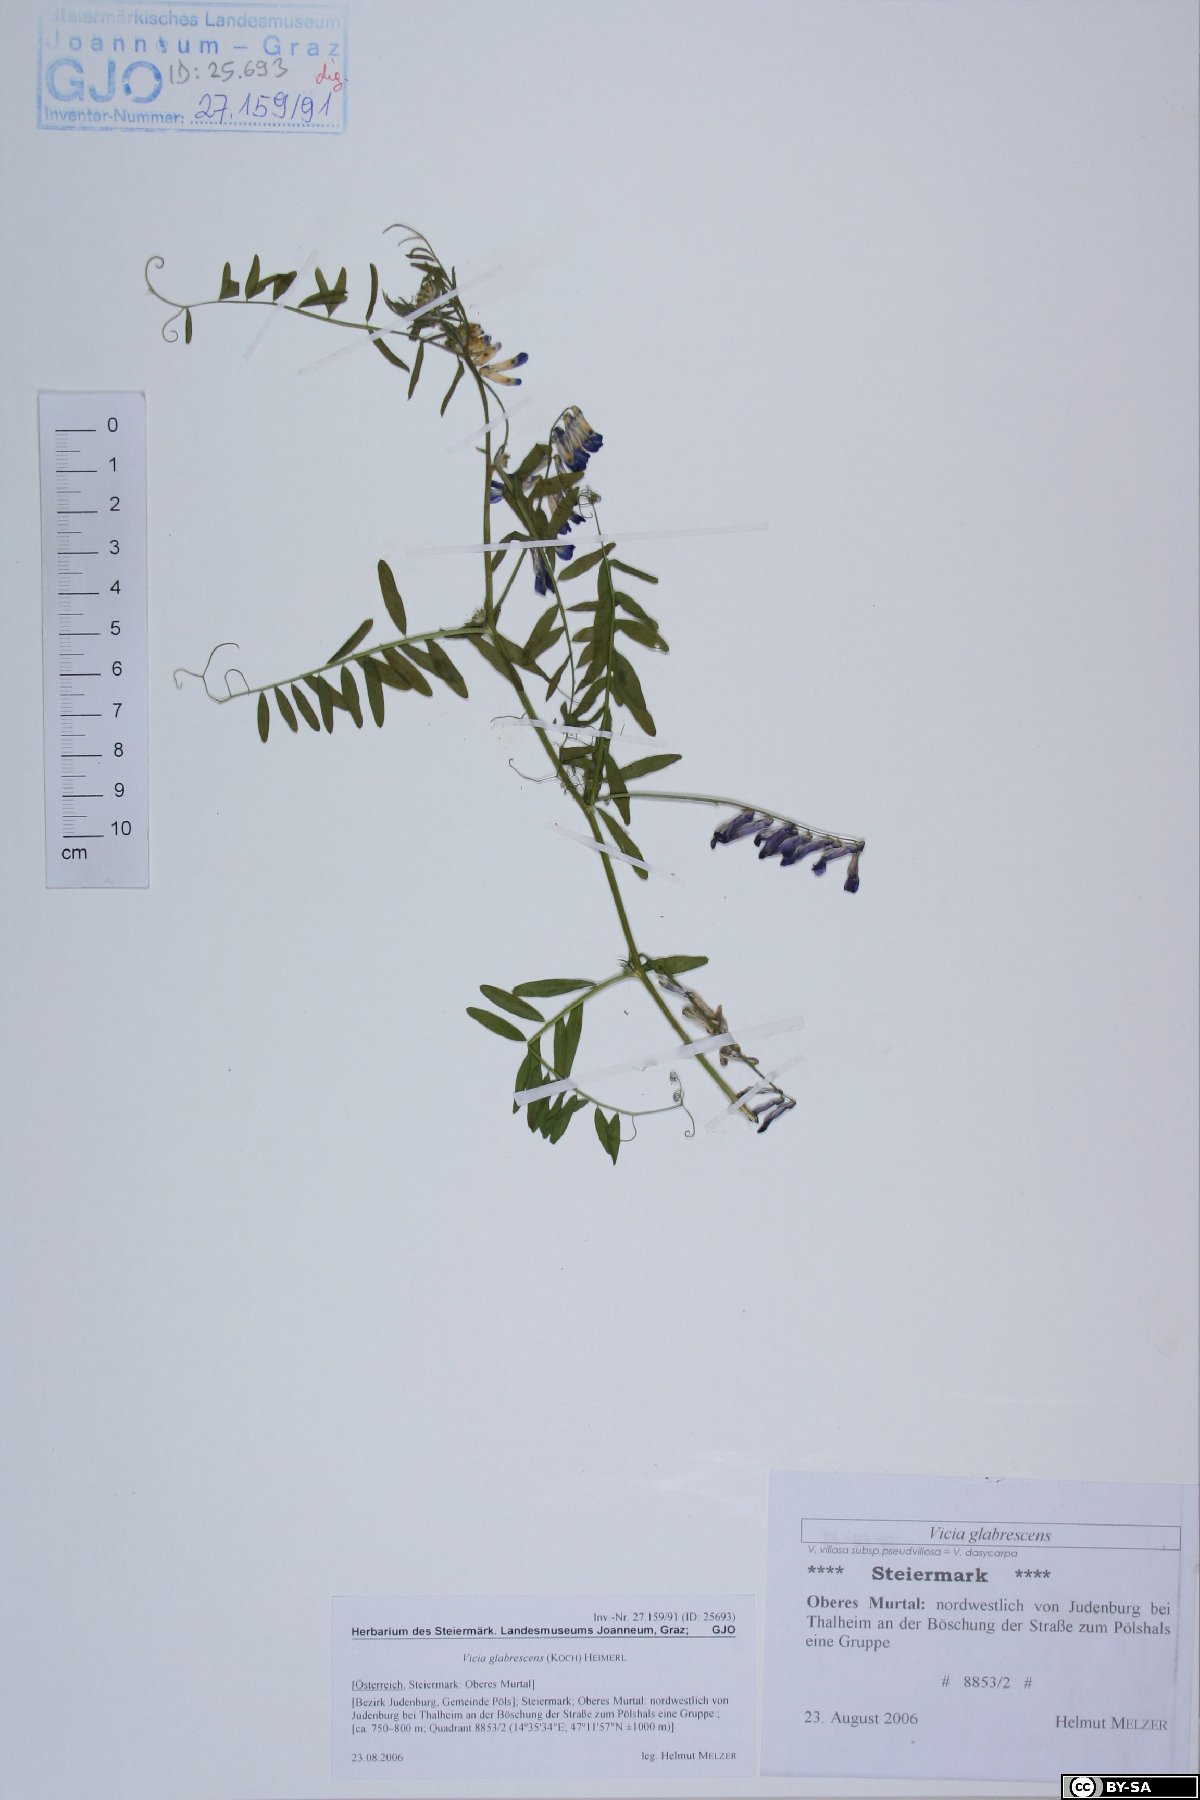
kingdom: Plantae
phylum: Tracheophyta
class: Magnoliopsida
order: Fabales
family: Fabaceae
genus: Vicia
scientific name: Vicia villosa
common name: Fodder vetch
